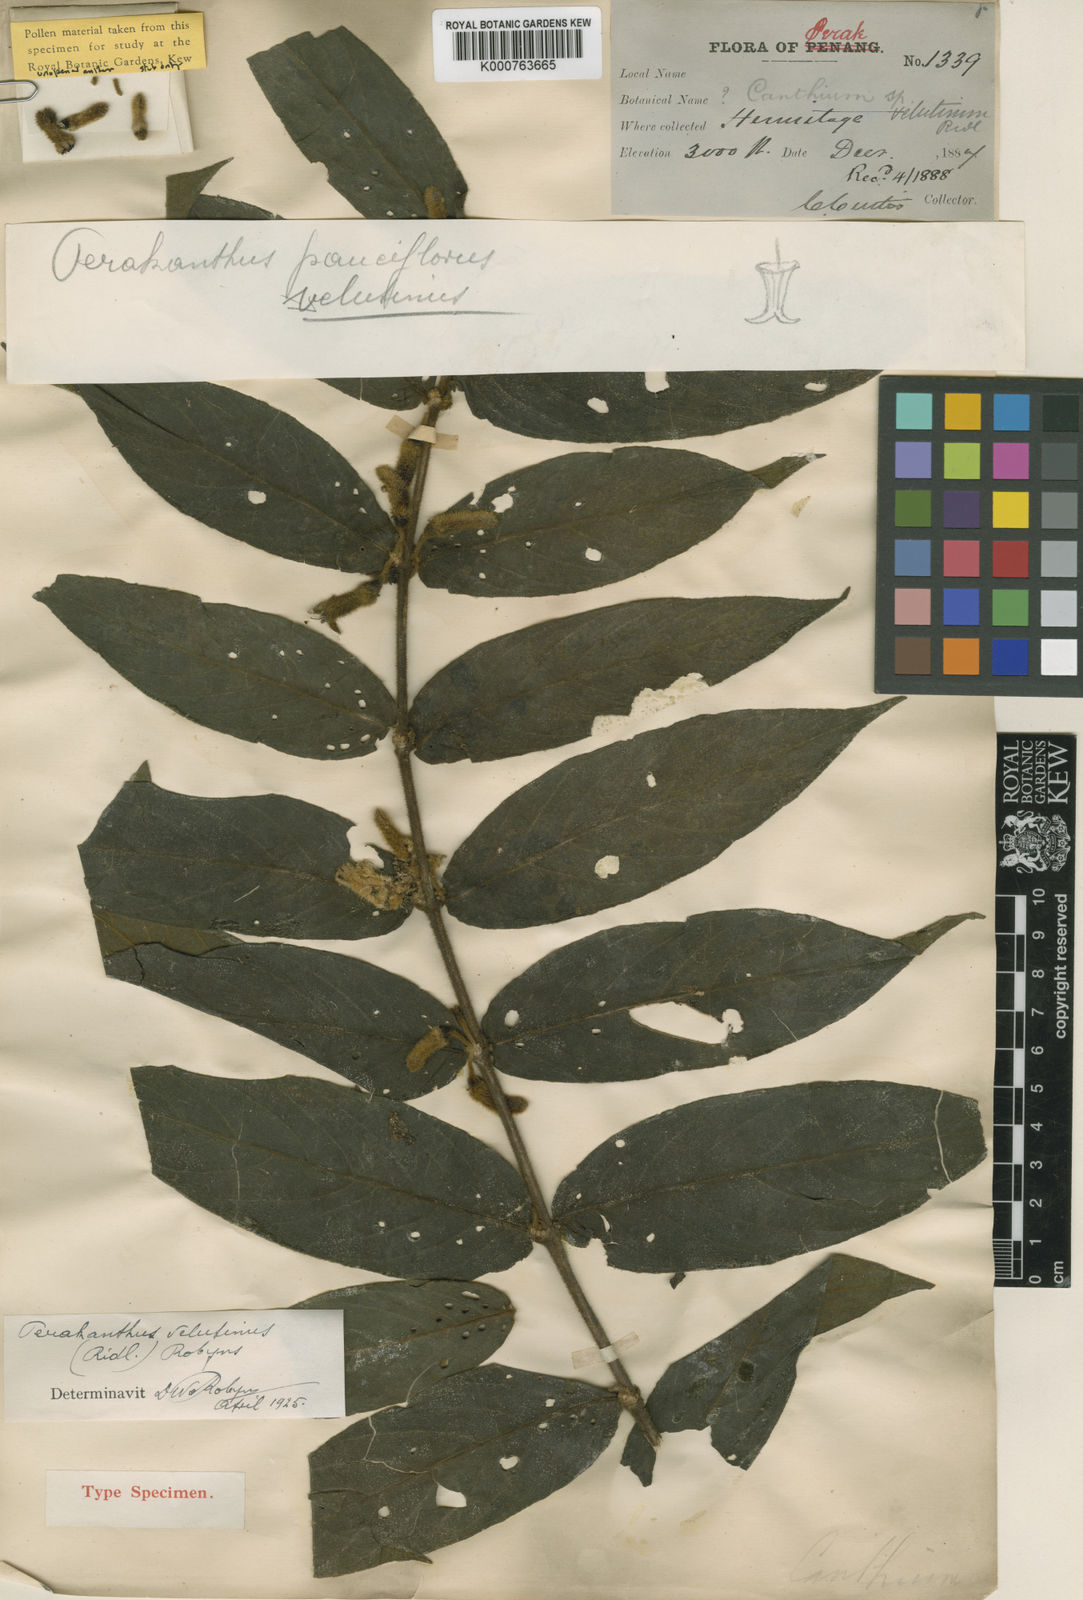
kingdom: Plantae
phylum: Tracheophyta
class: Magnoliopsida
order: Gentianales
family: Rubiaceae
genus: Perakanthus
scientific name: Perakanthus velutinus
